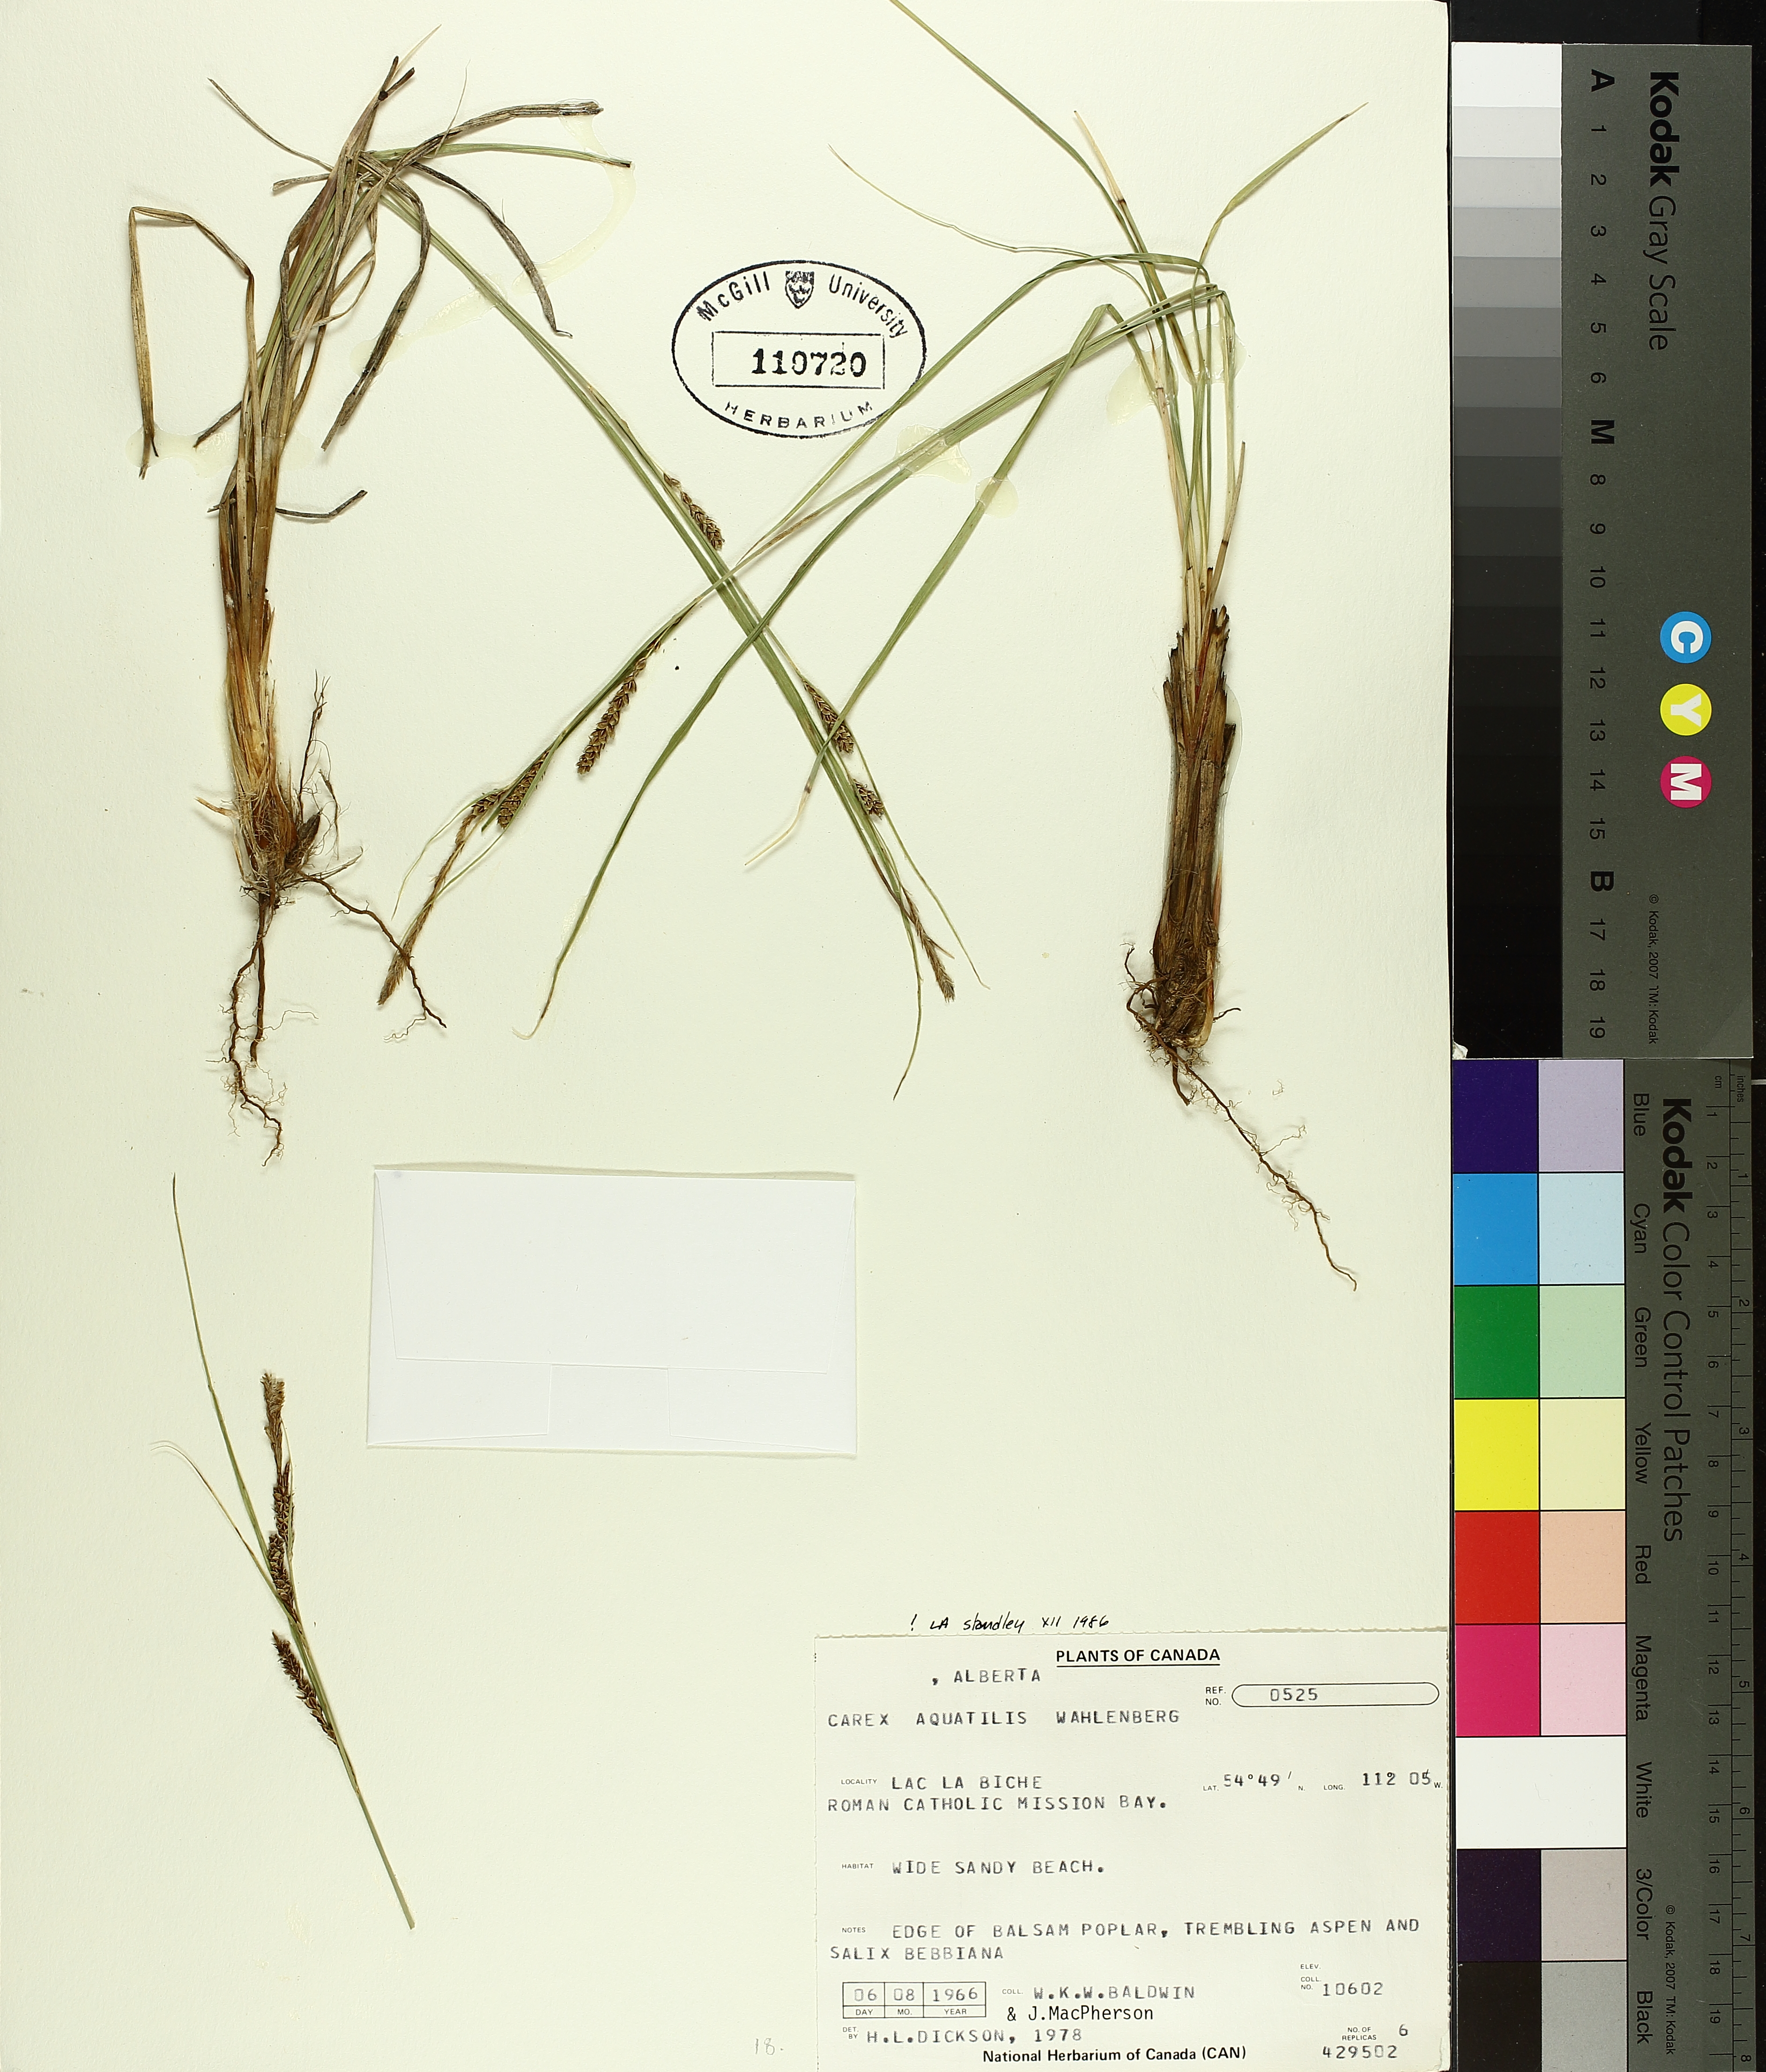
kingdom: Plantae
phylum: Tracheophyta
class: Liliopsida
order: Poales
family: Cyperaceae
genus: Carex
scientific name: Carex aquatilis
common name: Water sedge
